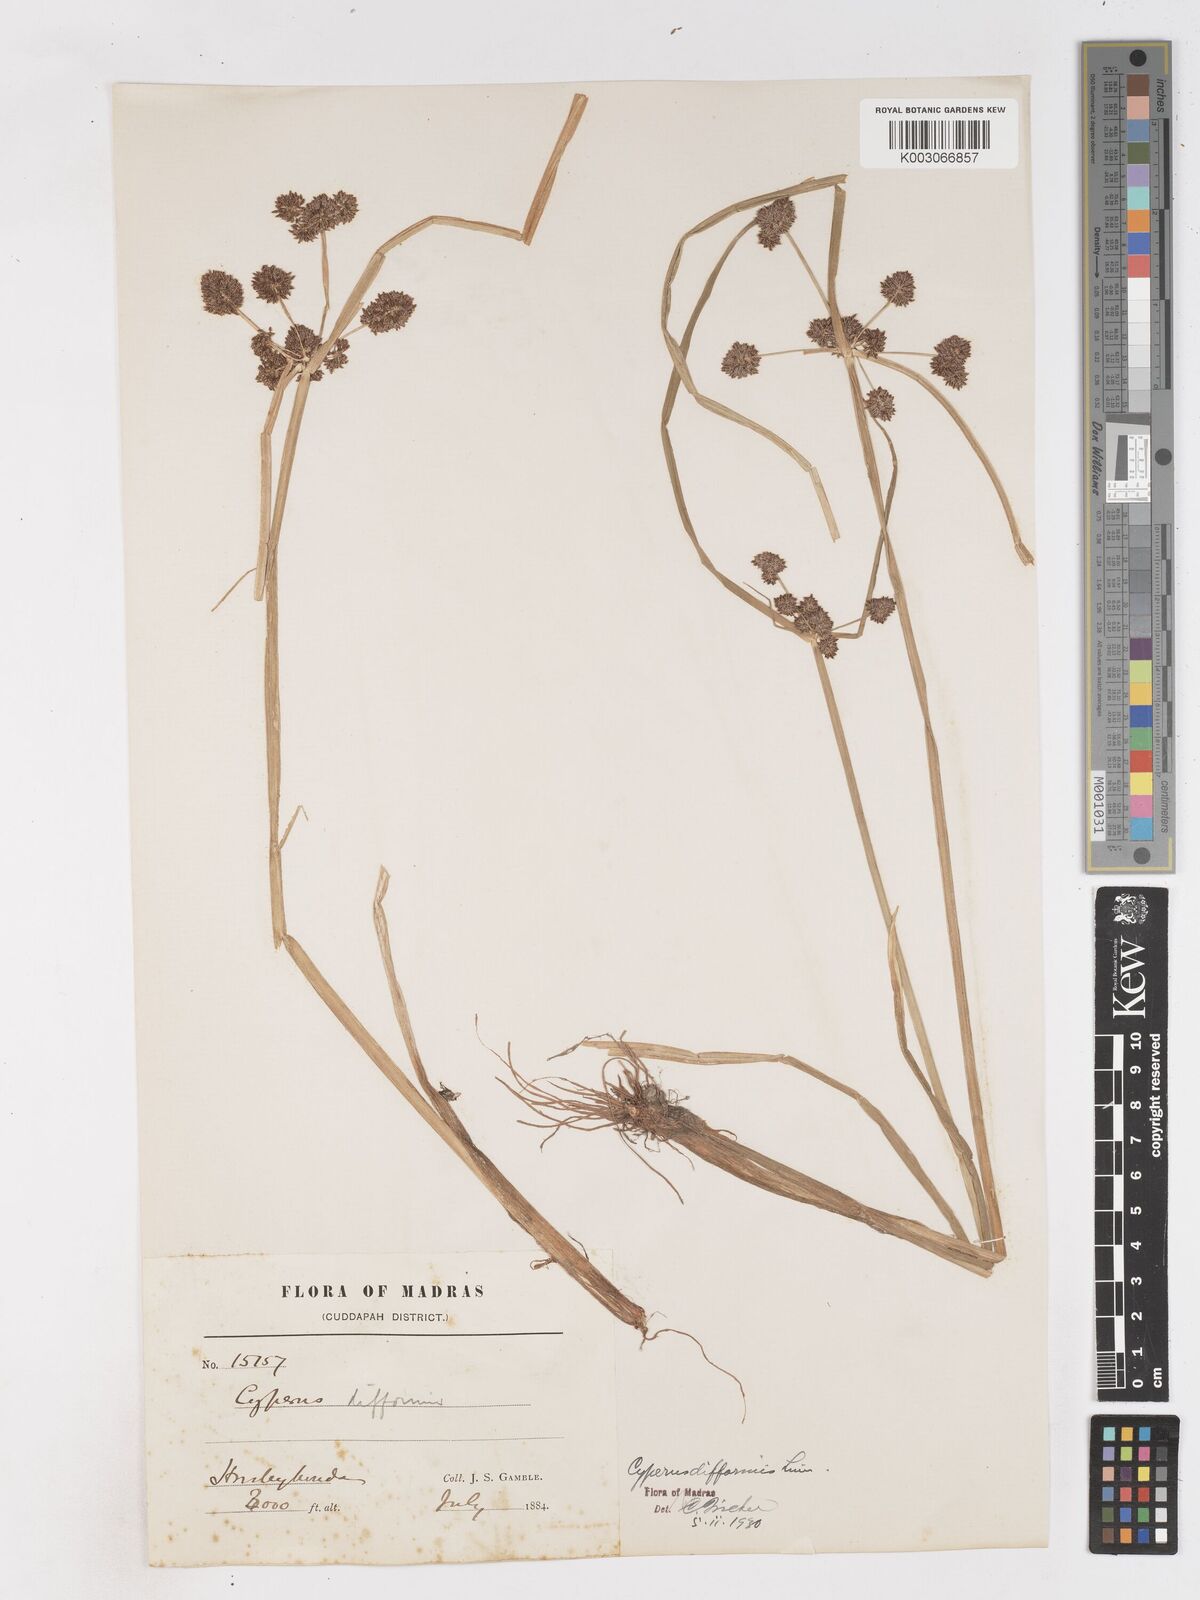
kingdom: Plantae
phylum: Tracheophyta
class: Liliopsida
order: Poales
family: Cyperaceae
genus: Cyperus
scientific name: Cyperus difformis
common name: Variable flatsedge
